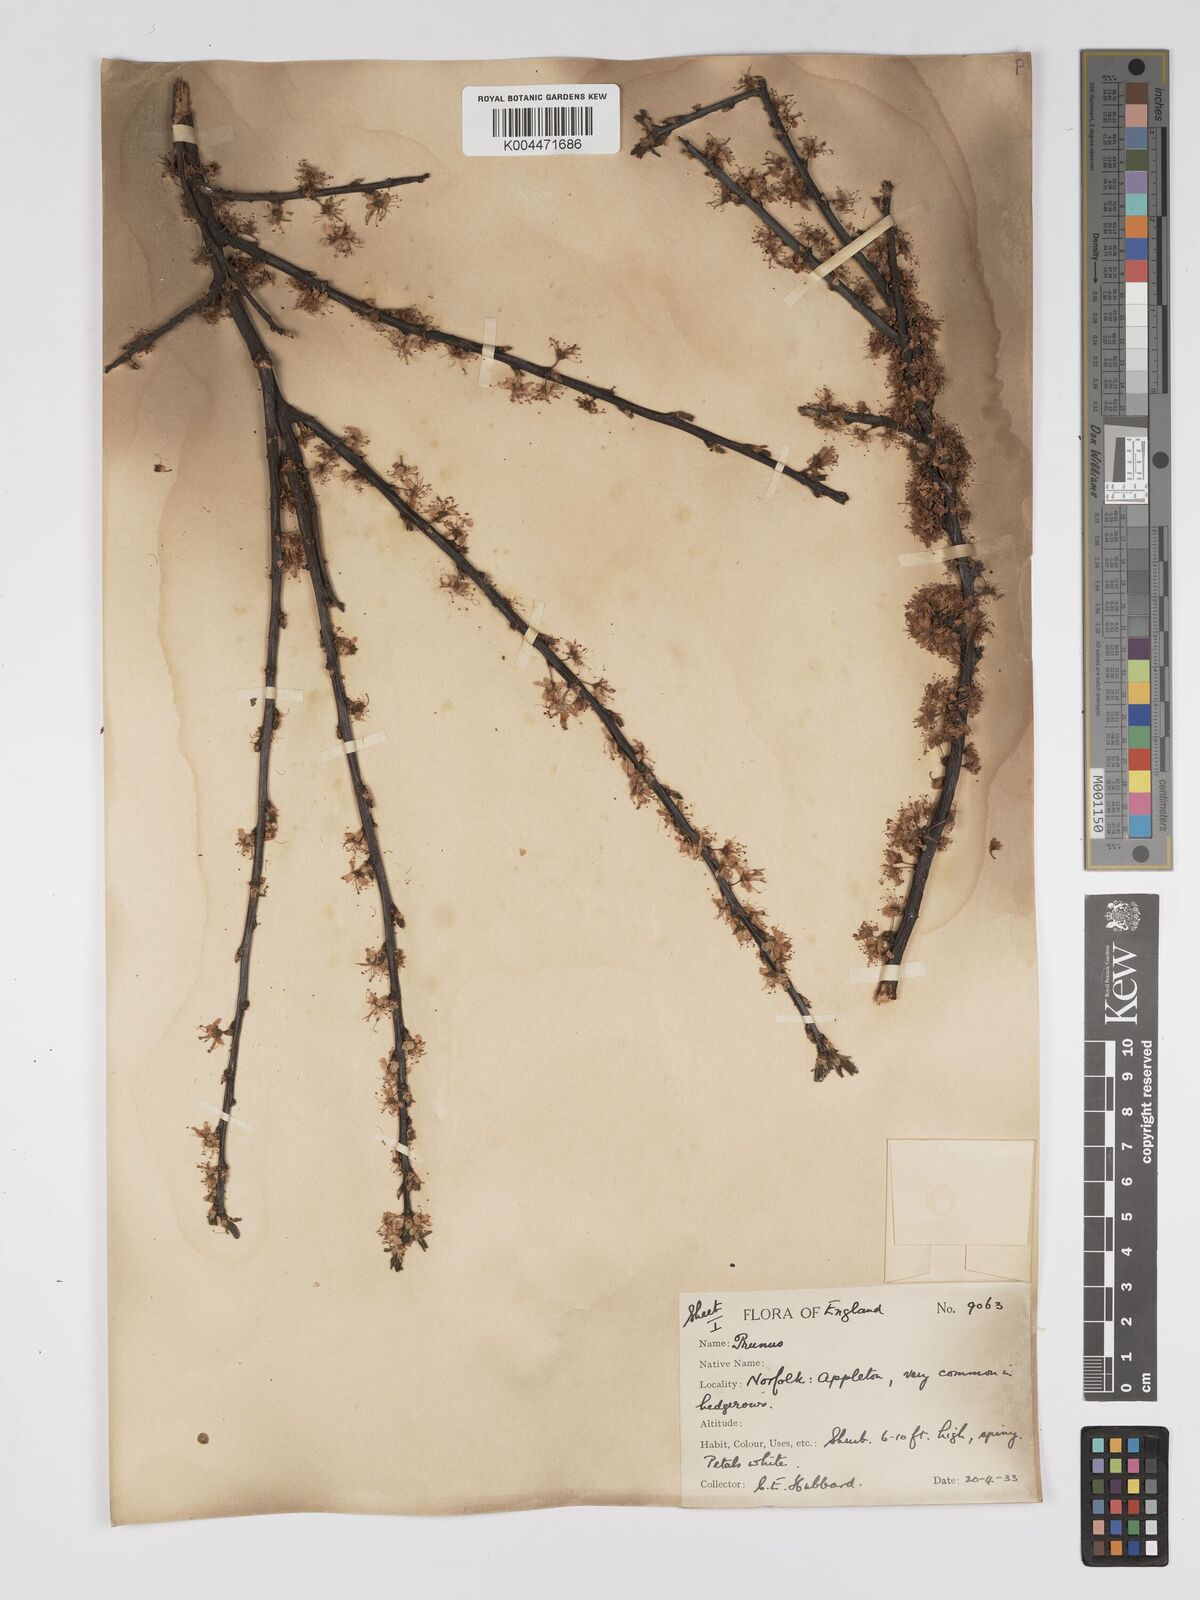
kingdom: Plantae
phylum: Tracheophyta
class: Magnoliopsida
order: Rosales
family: Rosaceae
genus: Prunus
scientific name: Prunus
